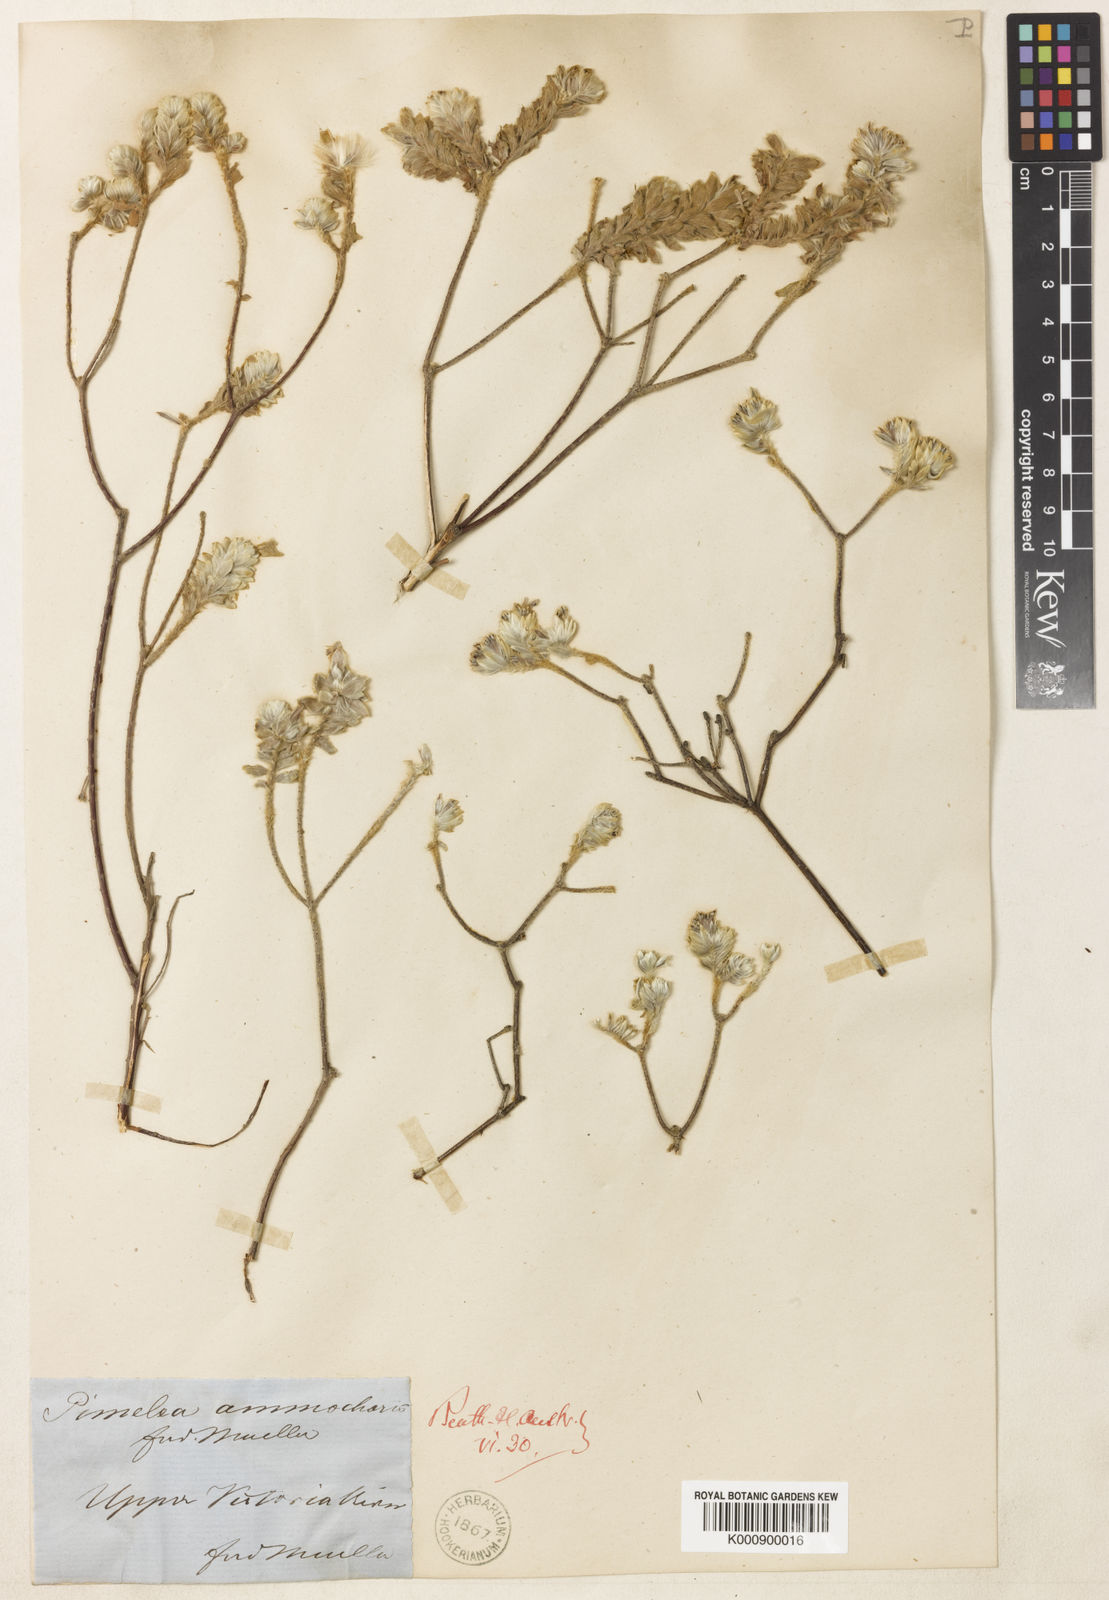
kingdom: Plantae
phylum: Tracheophyta
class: Magnoliopsida
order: Malvales
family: Thymelaeaceae
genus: Pimelea
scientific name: Pimelea ammocharis
